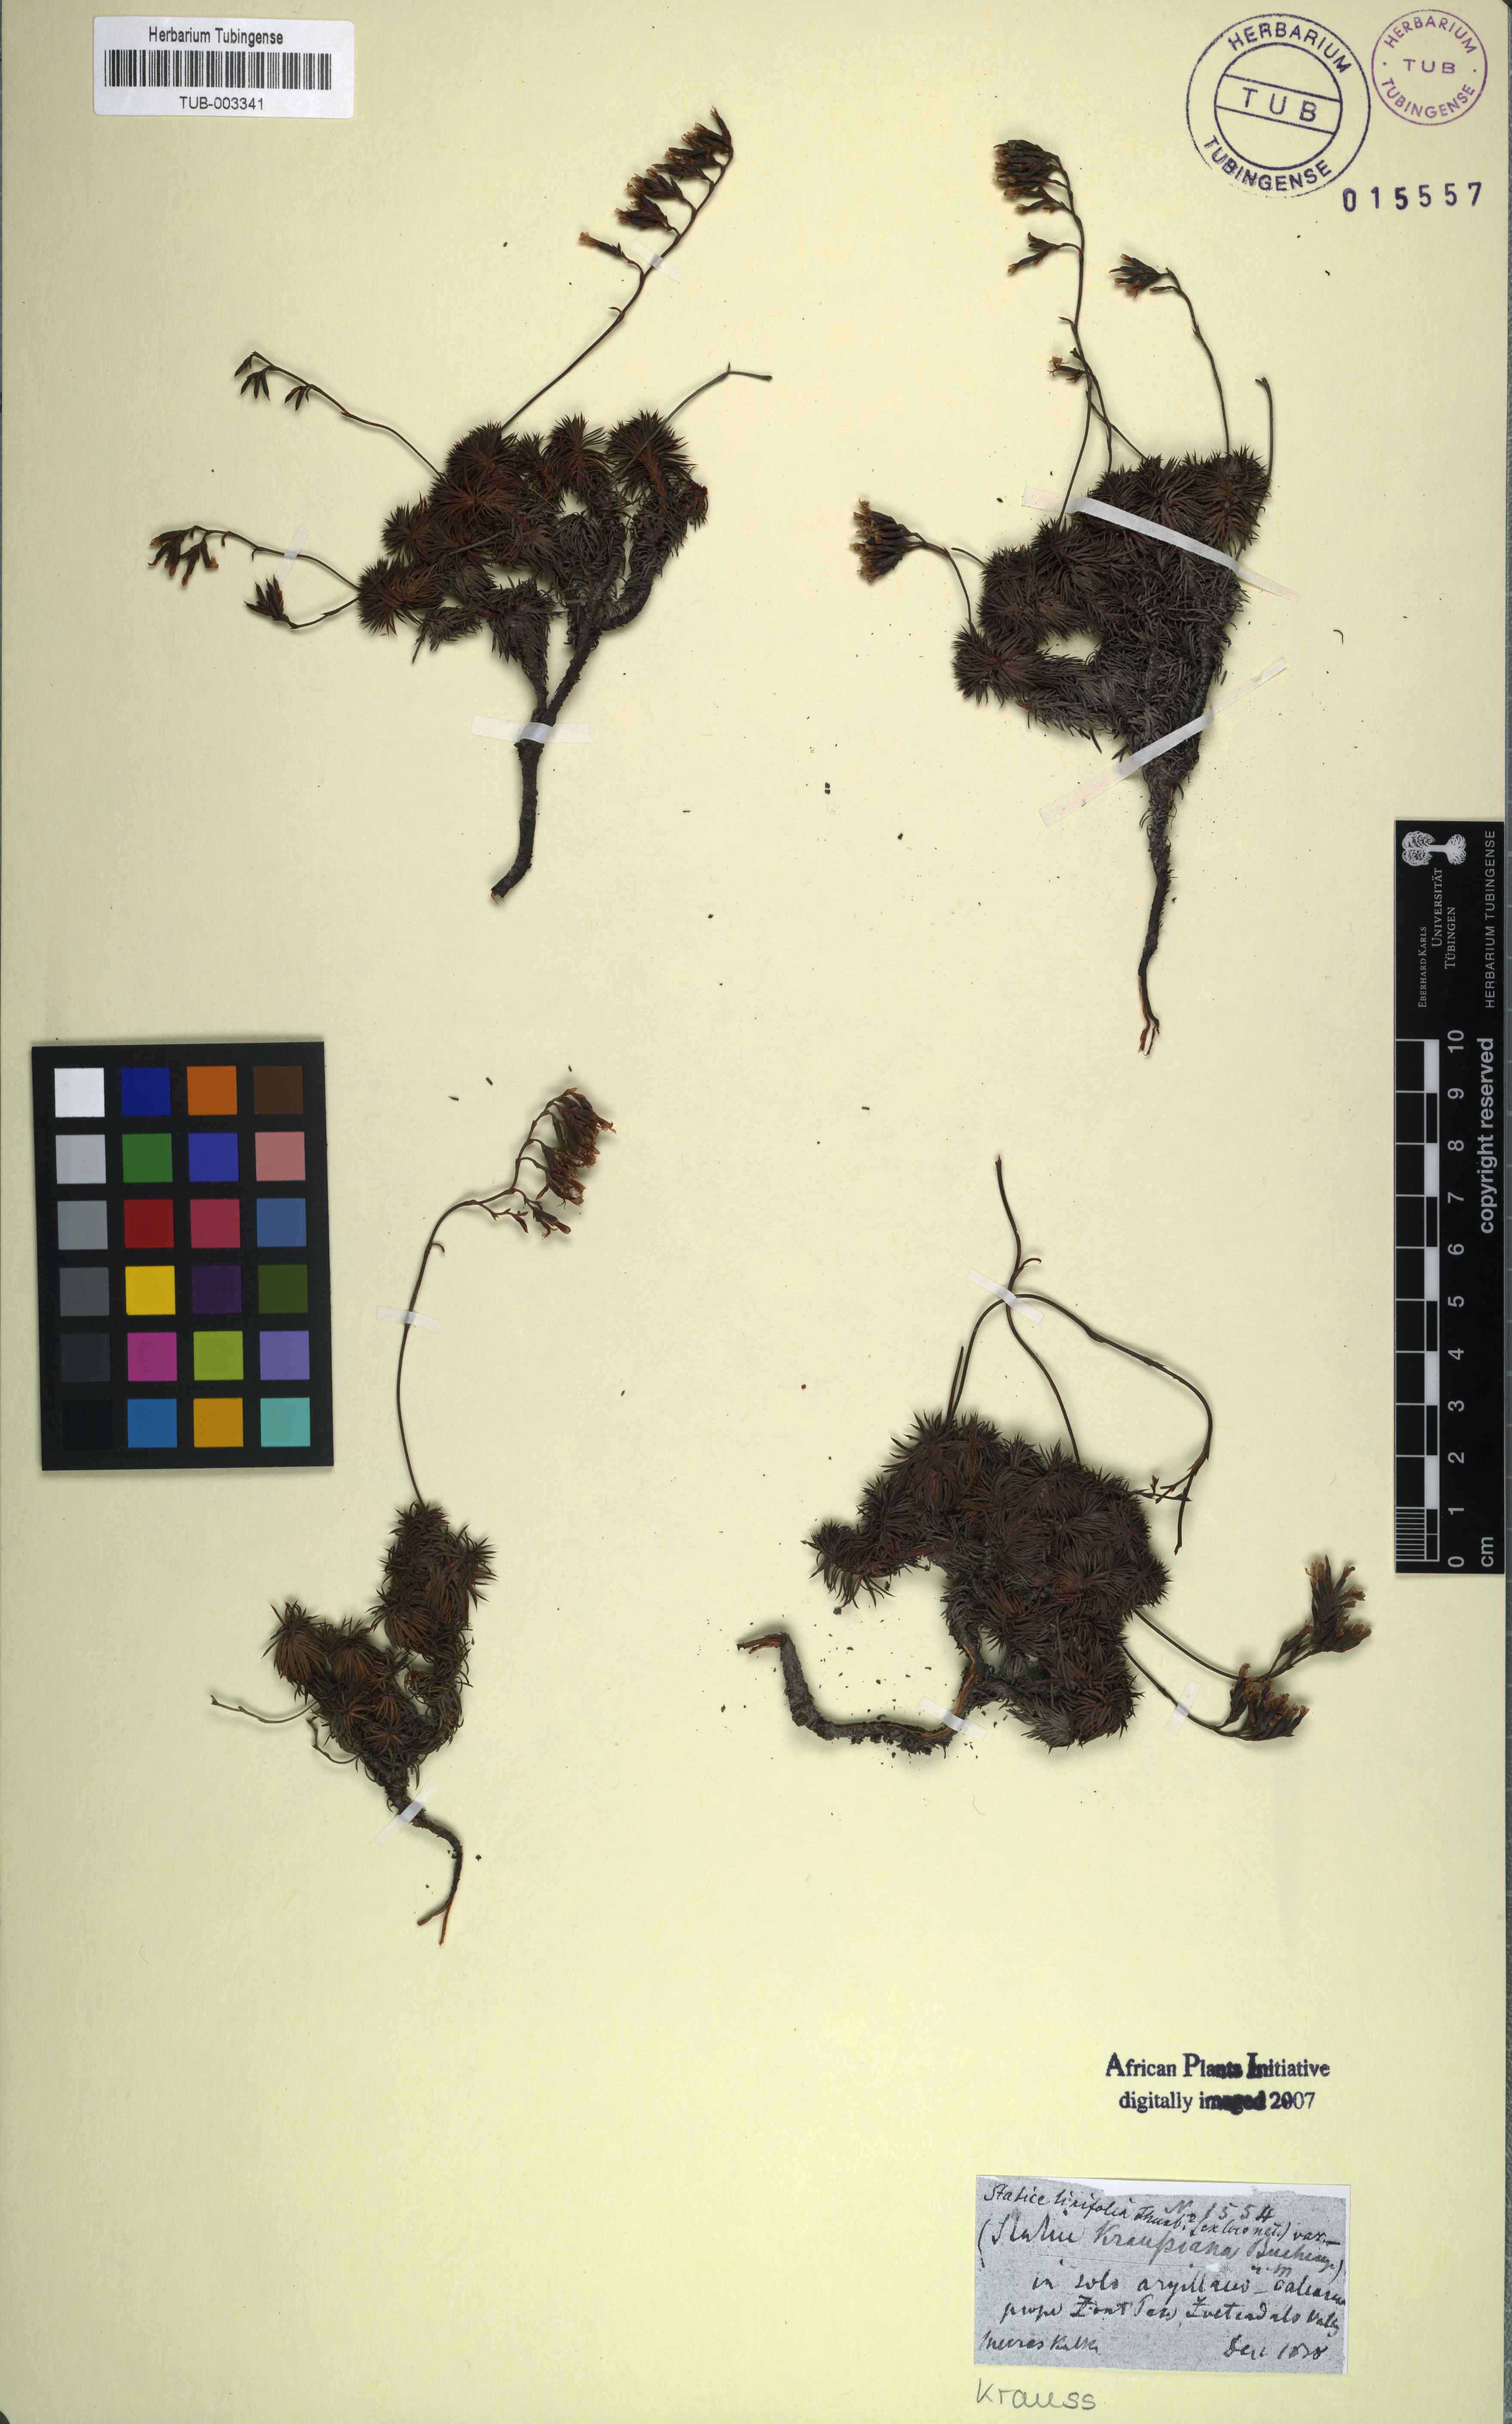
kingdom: Plantae
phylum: Tracheophyta
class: Magnoliopsida
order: Caryophyllales
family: Plumbaginaceae
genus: Limonium
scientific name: Limonium kraussianum
